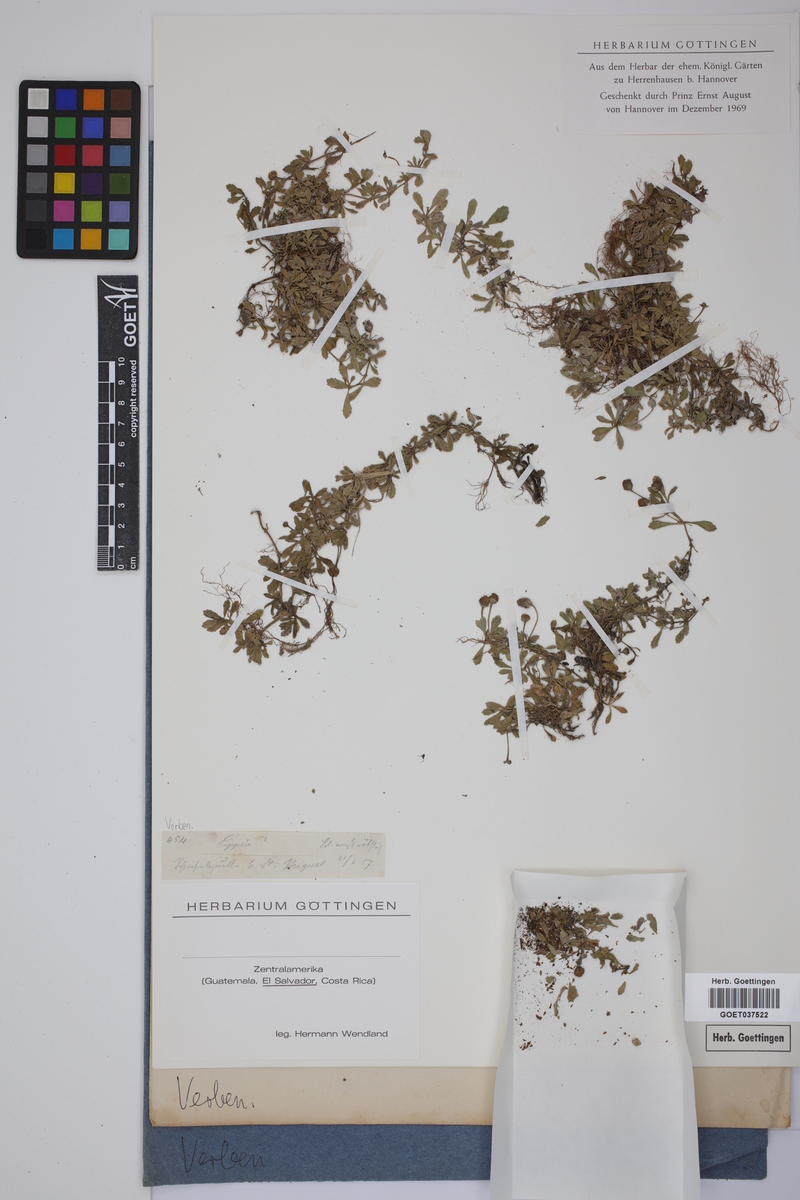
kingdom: Plantae
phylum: Tracheophyta
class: Magnoliopsida
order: Lamiales
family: Verbenaceae
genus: Lippia
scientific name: Lippia
